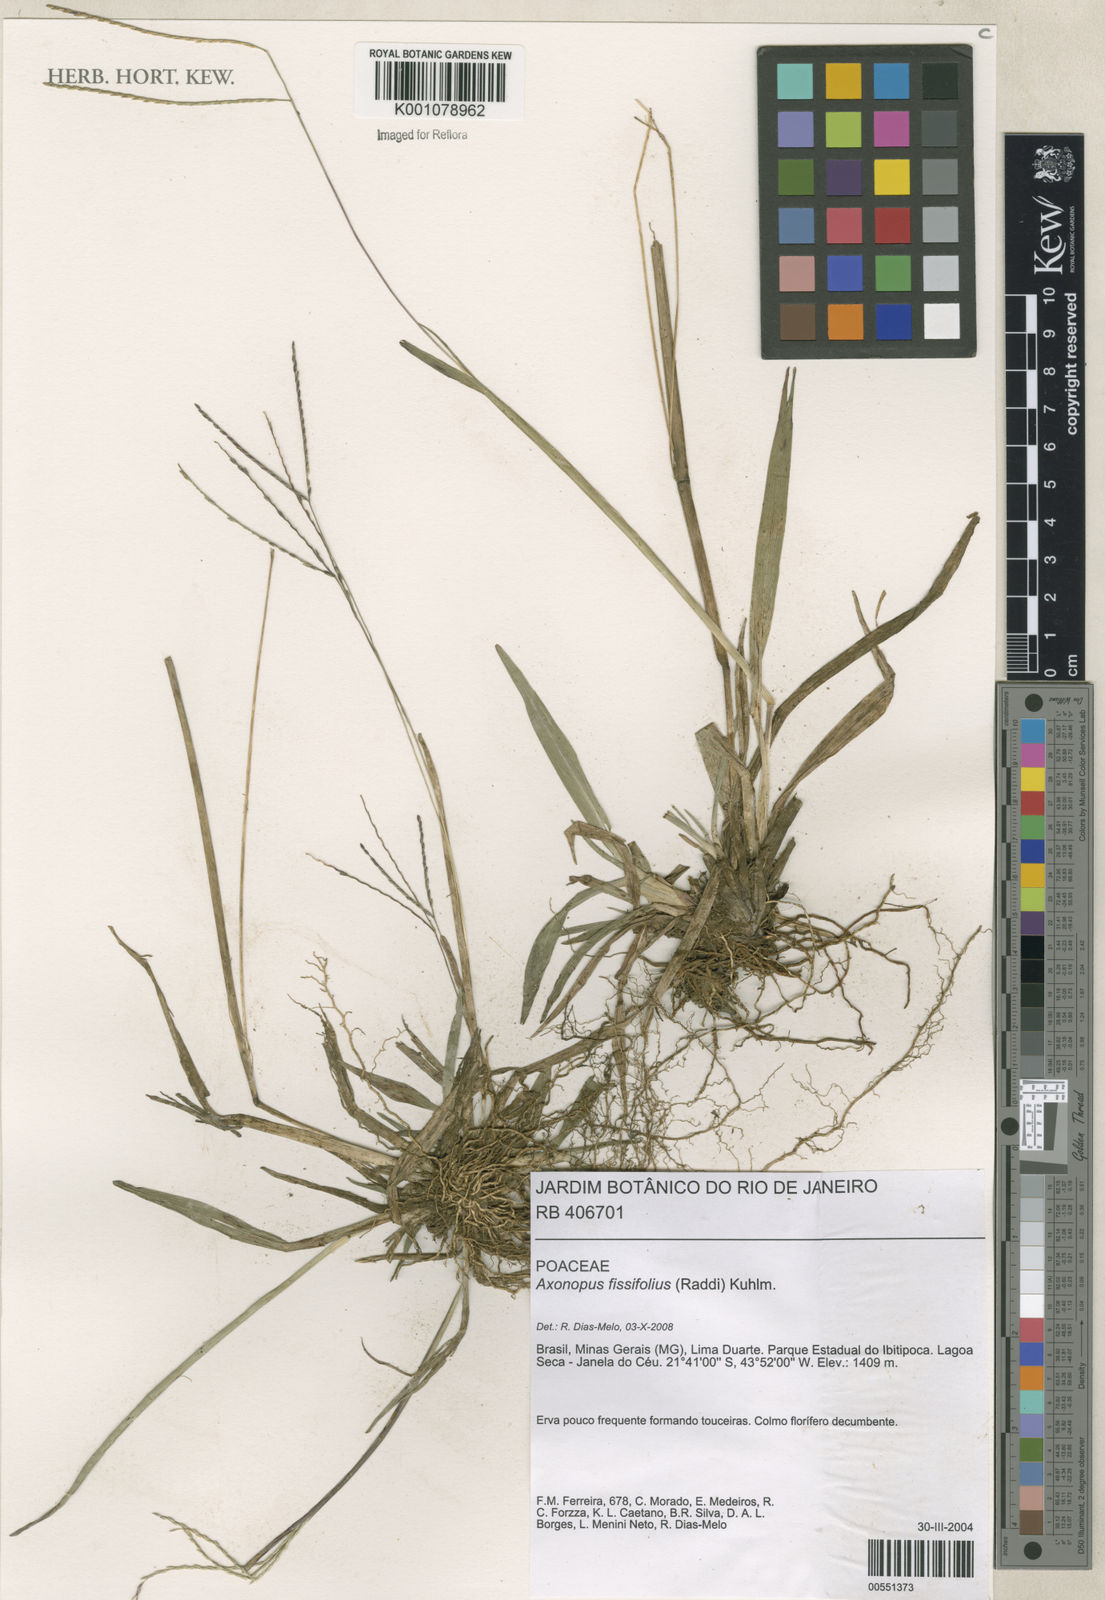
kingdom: Plantae
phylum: Tracheophyta
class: Liliopsida
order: Poales
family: Poaceae
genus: Axonopus
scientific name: Axonopus fissifolius
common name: Common carpetgrass
